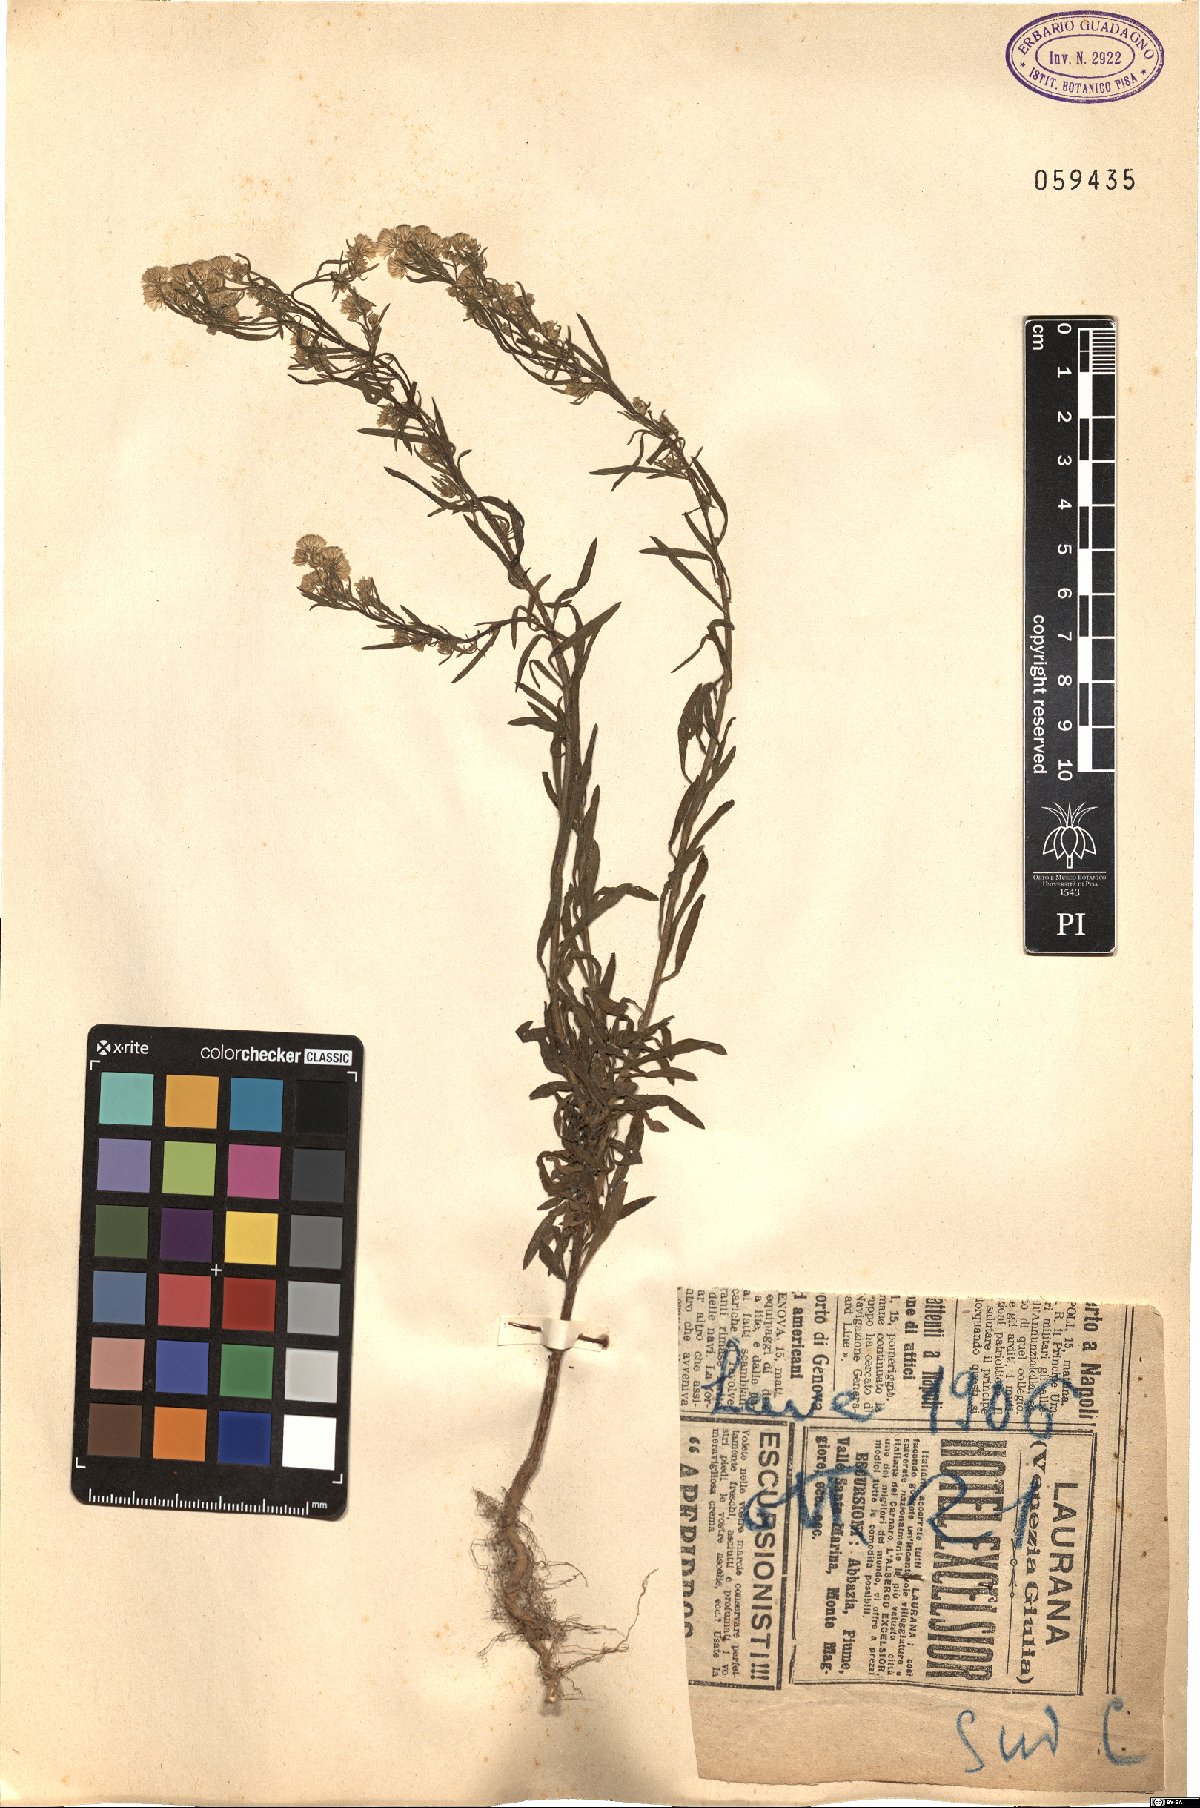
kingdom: Plantae
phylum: Tracheophyta
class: Magnoliopsida
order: Asterales
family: Asteraceae
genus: Erigeron
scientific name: Erigeron
